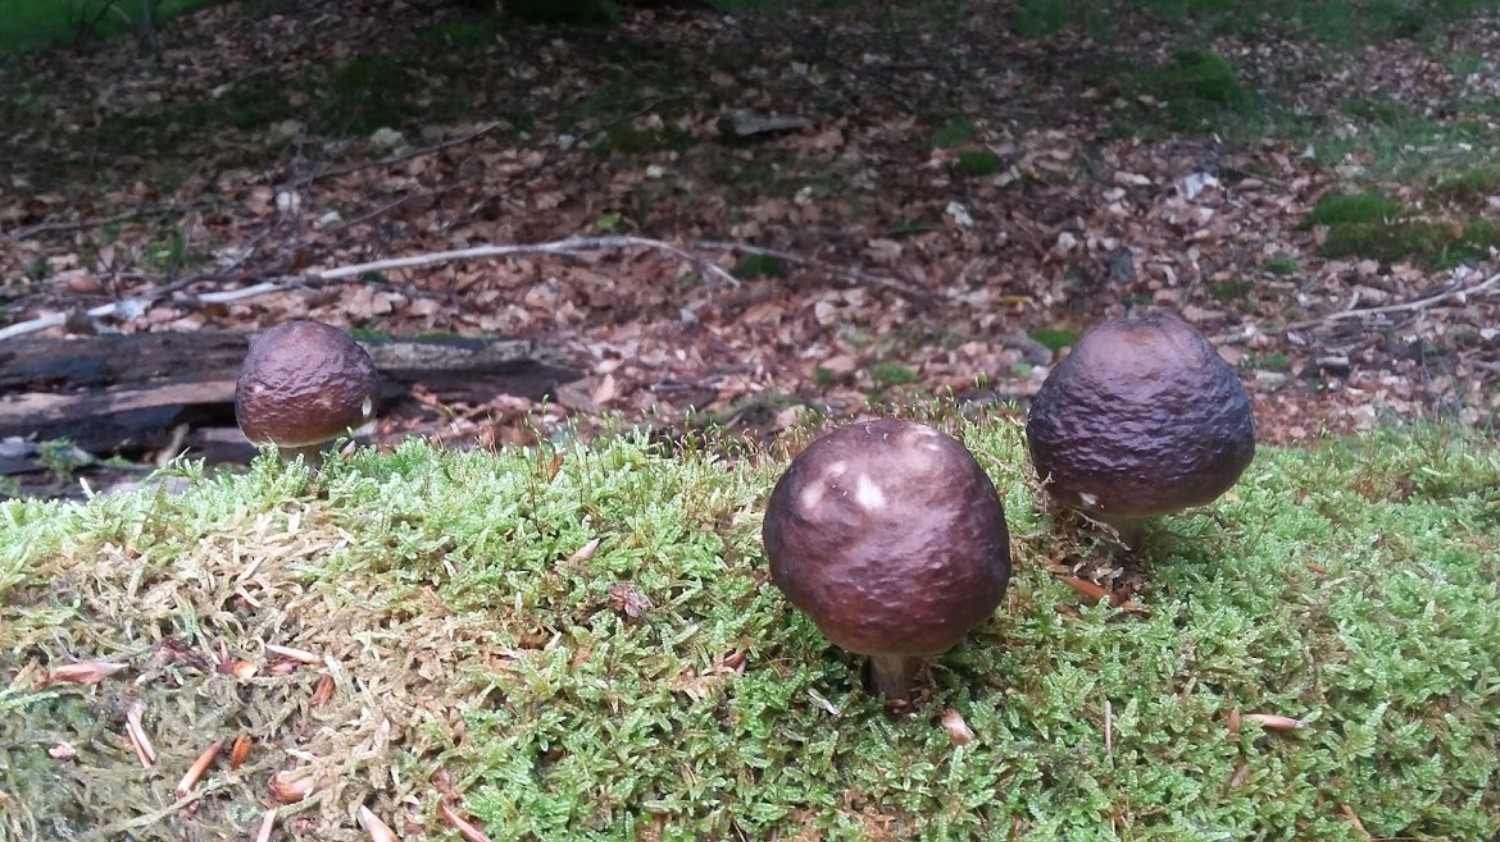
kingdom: Fungi
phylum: Basidiomycota
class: Agaricomycetes
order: Agaricales
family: Pluteaceae
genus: Pluteus
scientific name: Pluteus cervinus
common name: sodfarvet skærmhat
